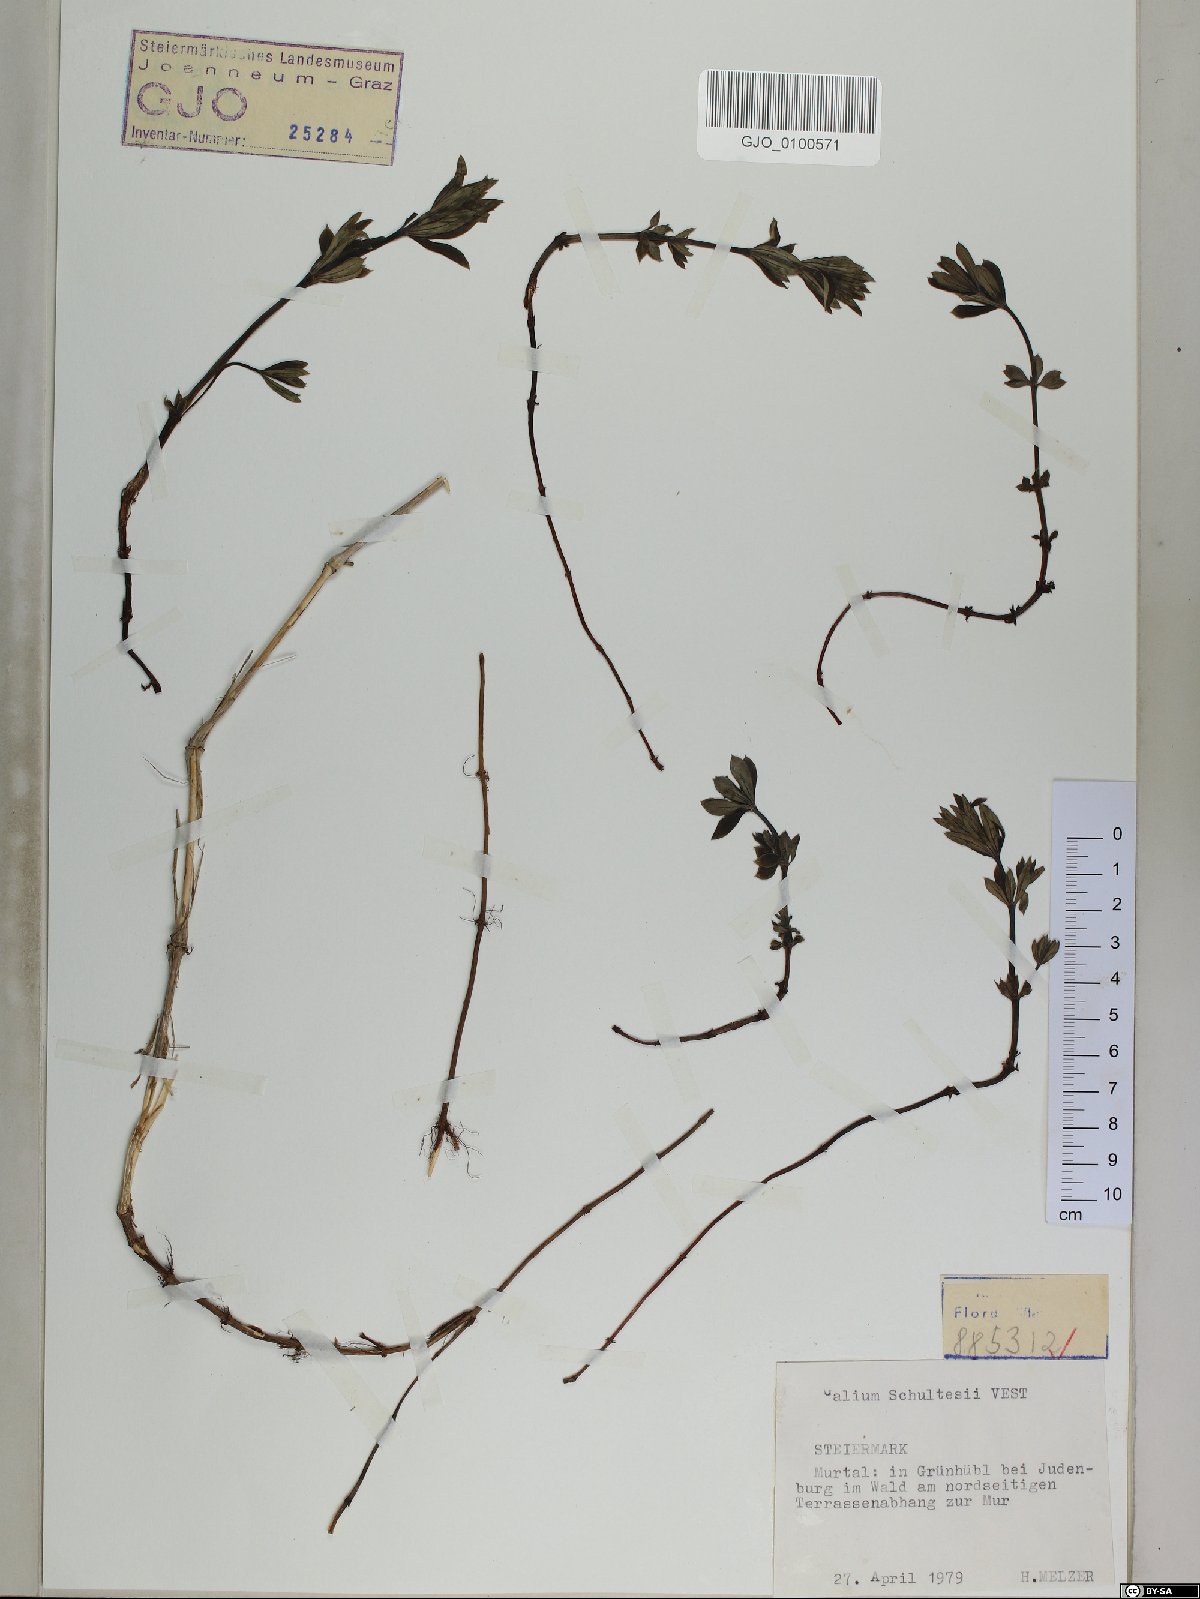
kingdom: Plantae
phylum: Tracheophyta
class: Magnoliopsida
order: Gentianales
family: Rubiaceae
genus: Galium
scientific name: Galium intermedium
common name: Bedstraw
